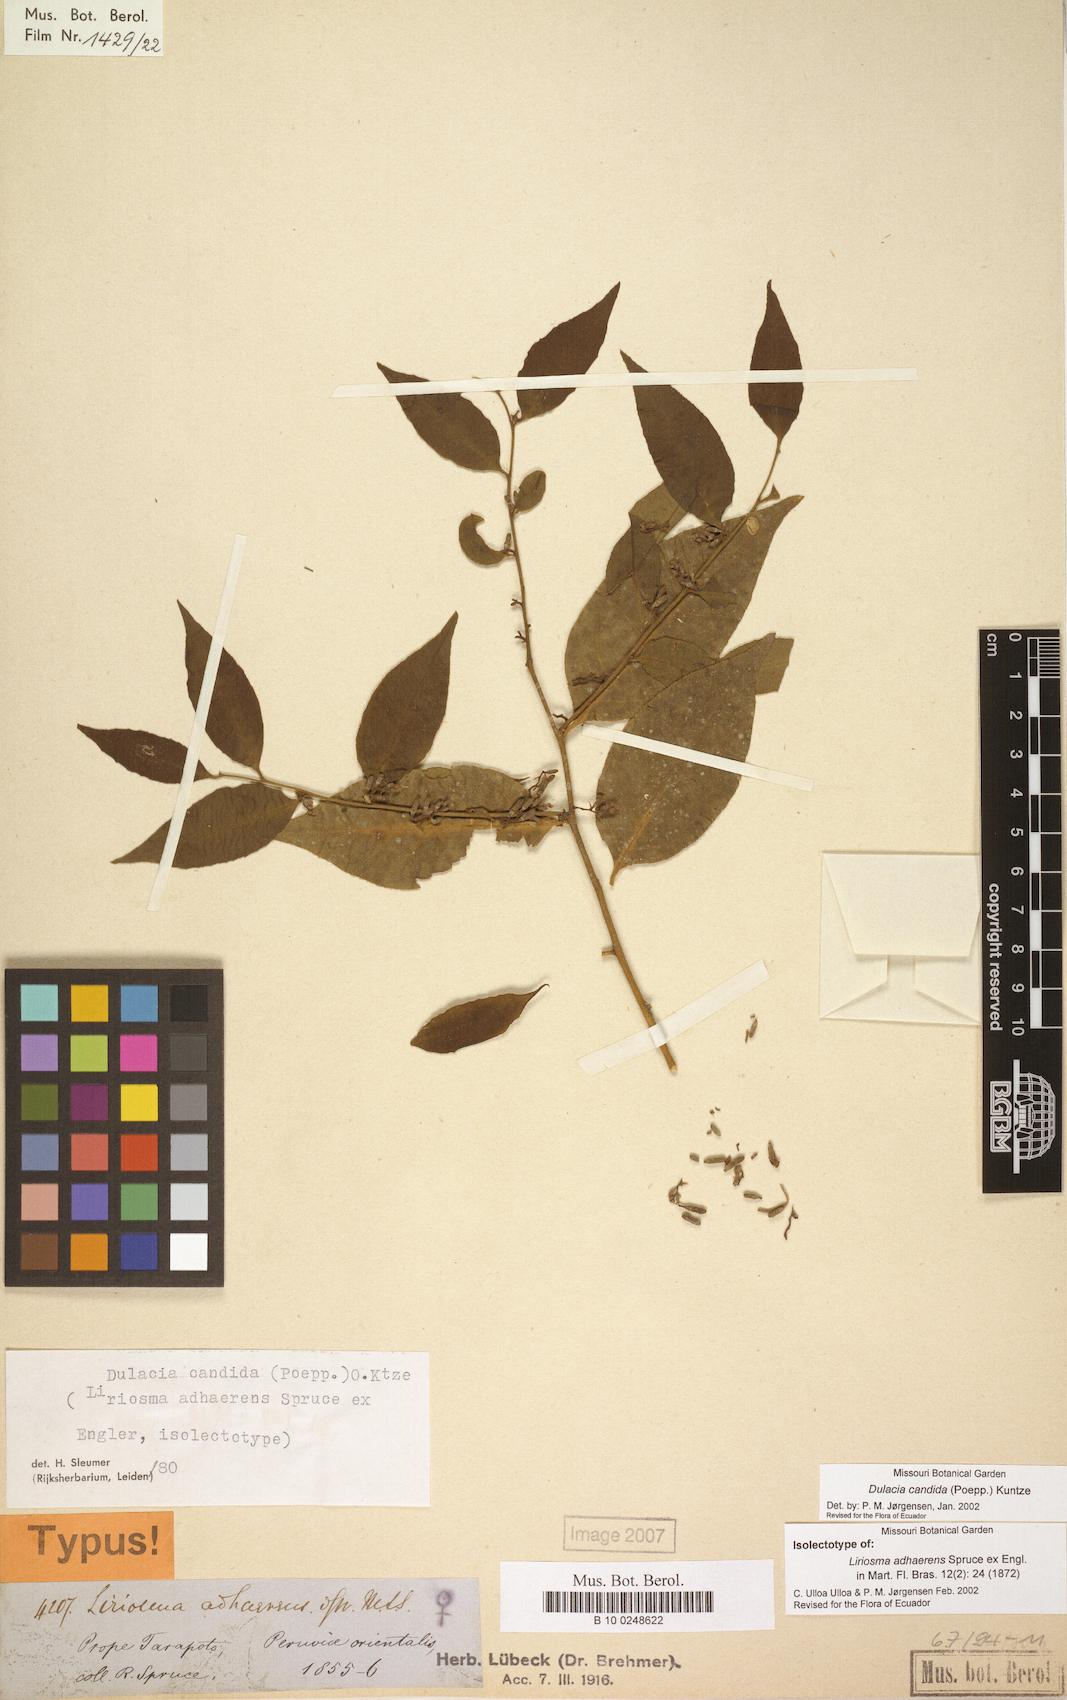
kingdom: Plantae
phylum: Tracheophyta
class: Magnoliopsida
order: Santalales
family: Olacaceae
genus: Dulacia
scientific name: Dulacia candida
